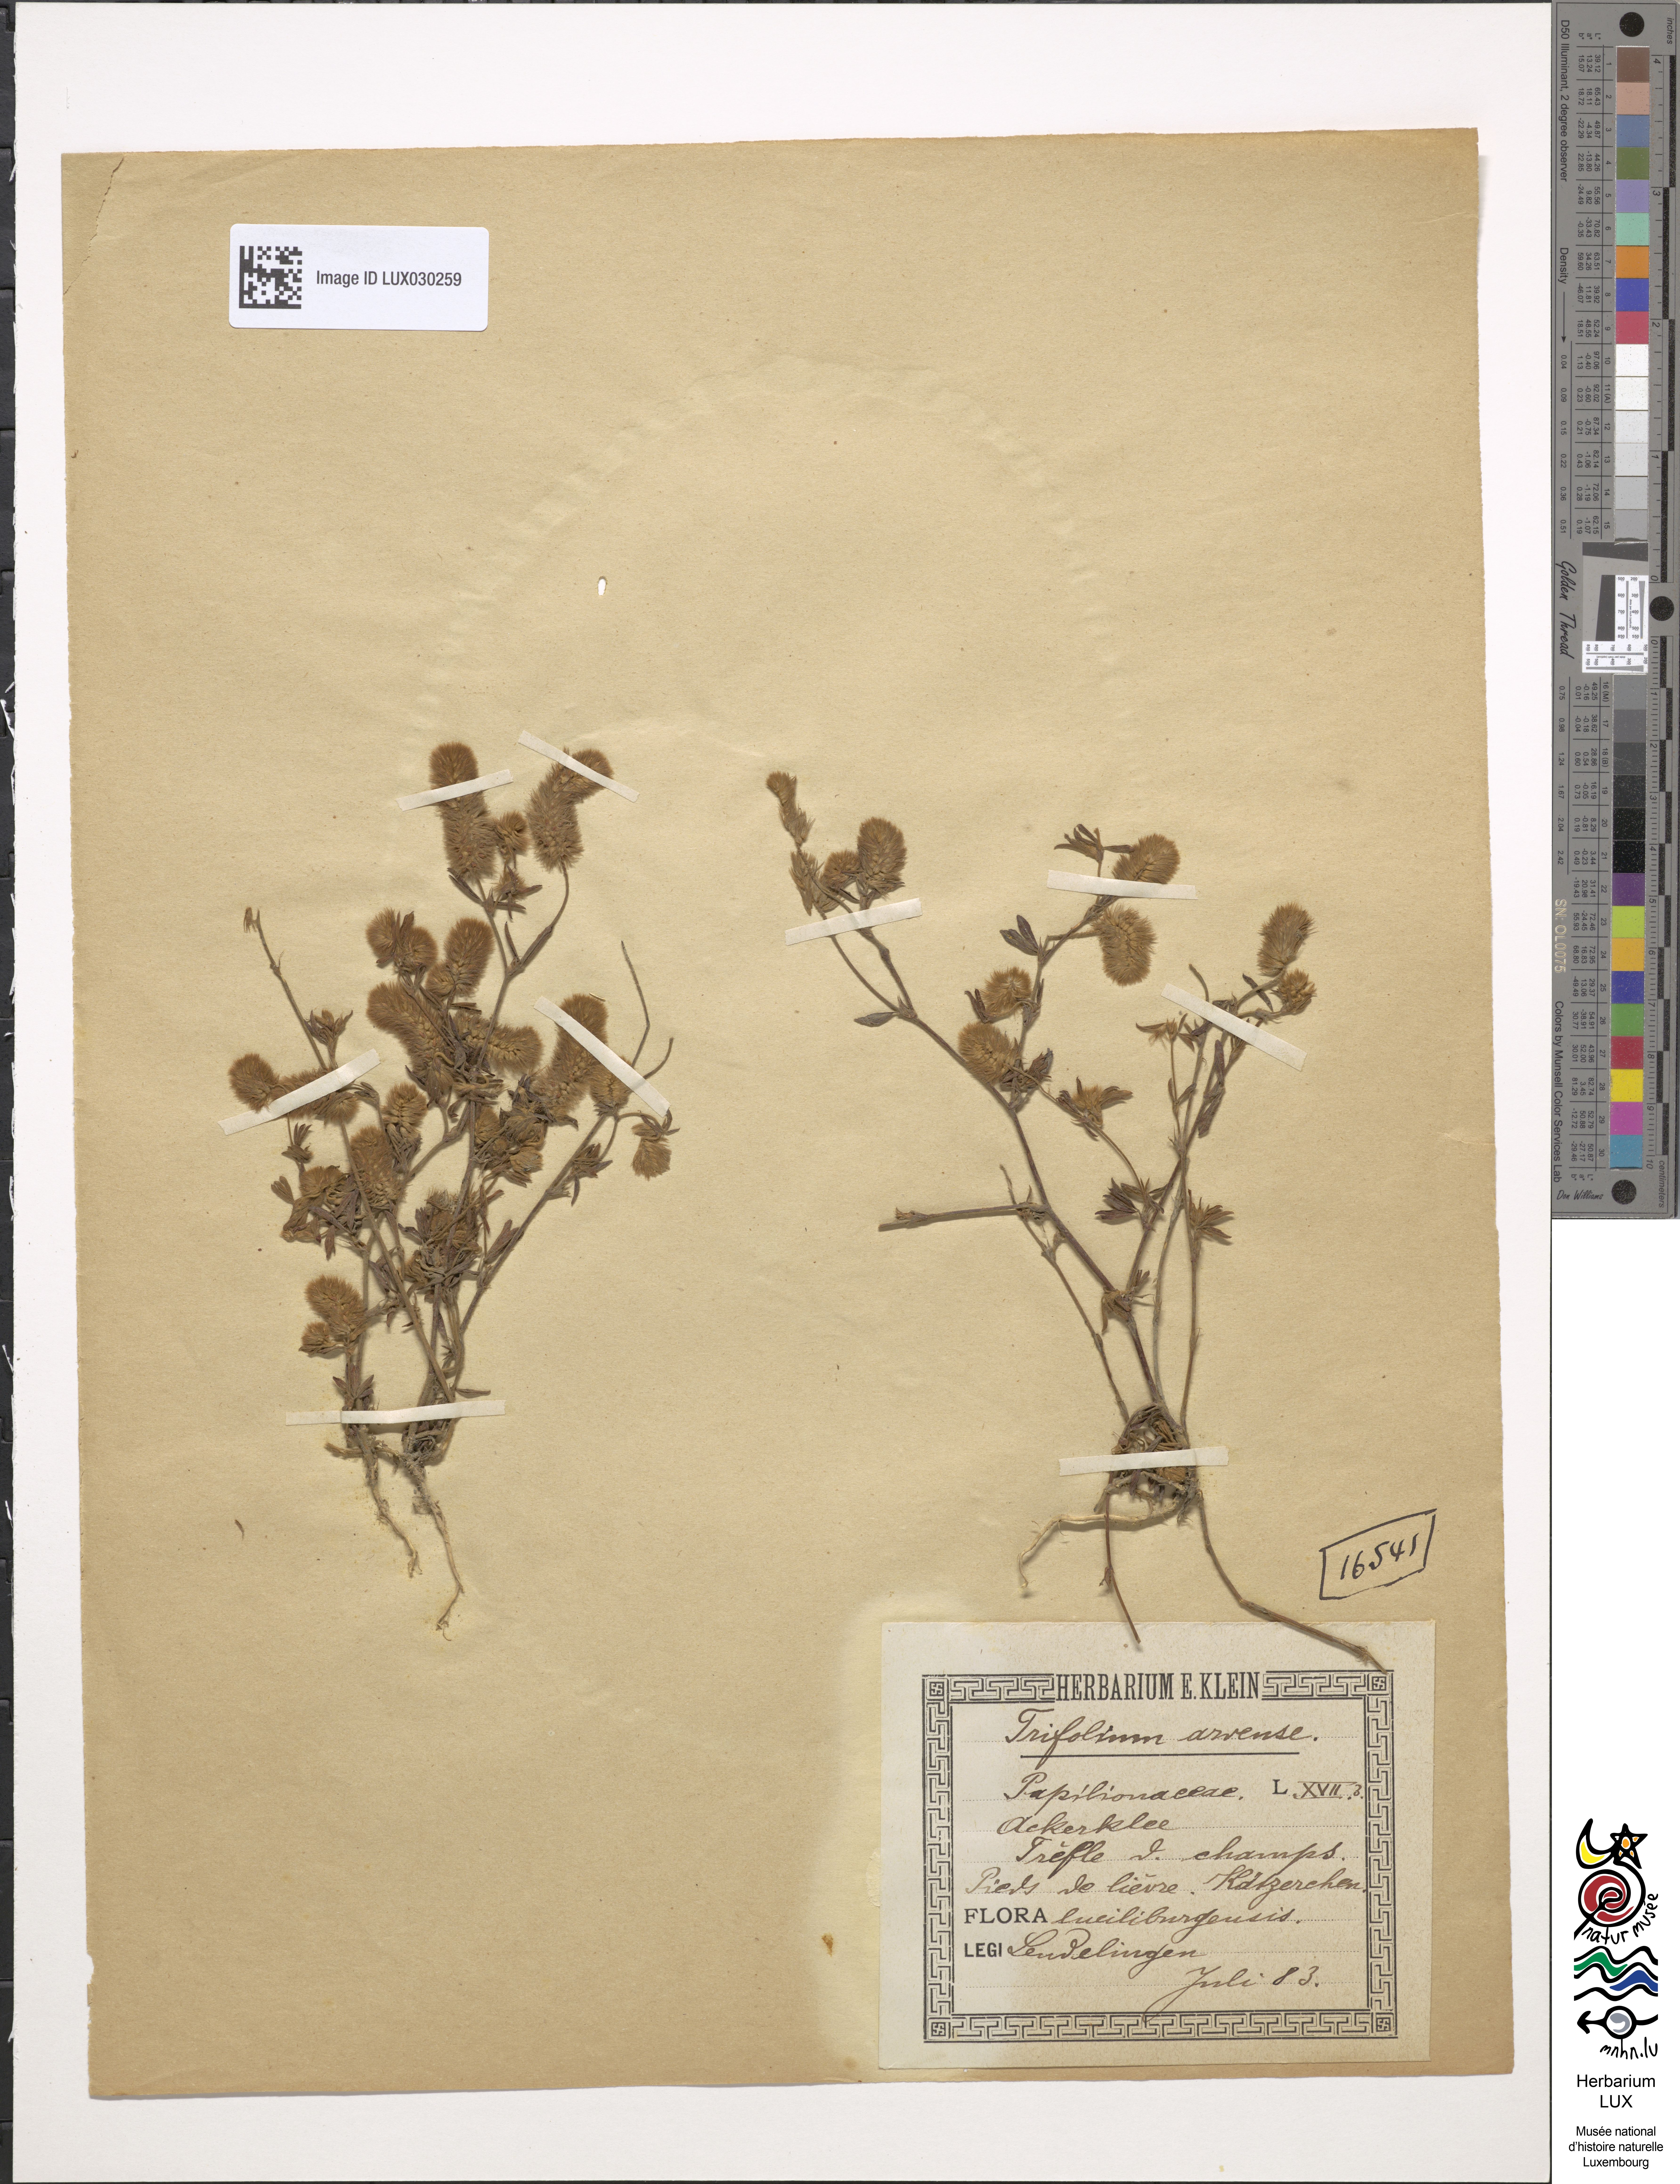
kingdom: Plantae
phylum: Tracheophyta
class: Magnoliopsida
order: Fabales
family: Fabaceae
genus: Trifolium
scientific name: Trifolium arvense
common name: Hare's-foot clover
